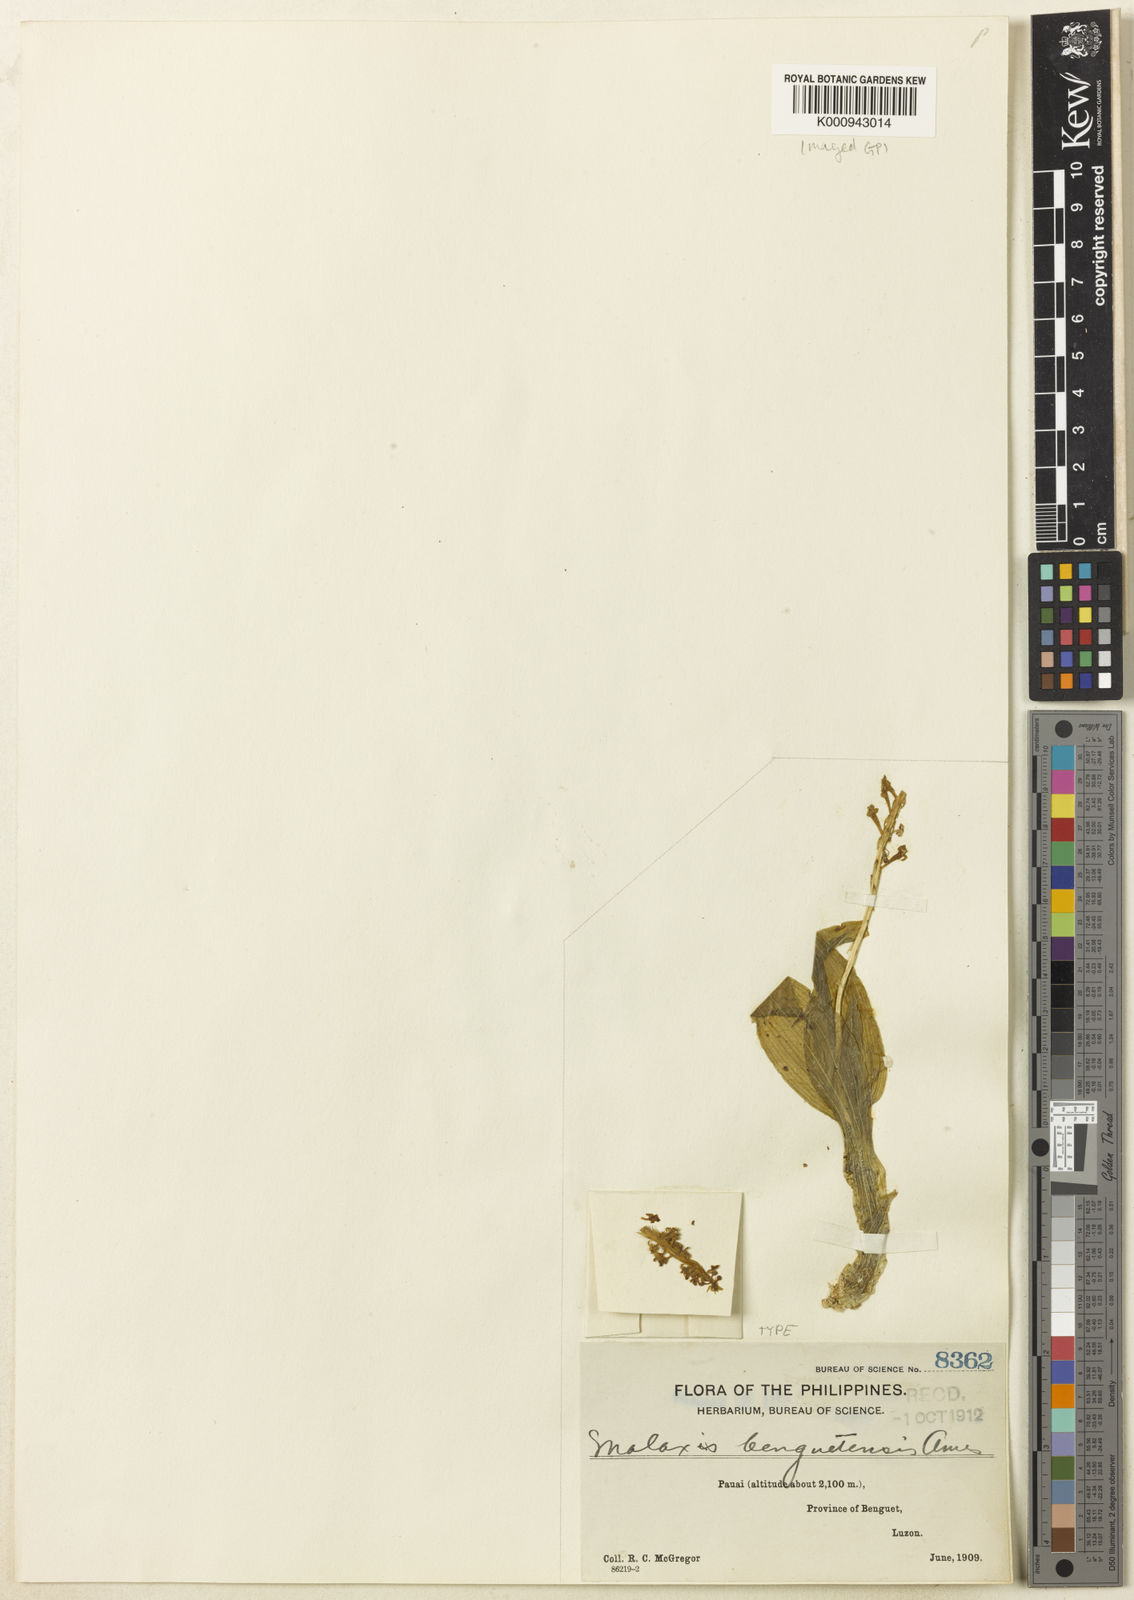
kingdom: Plantae
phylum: Tracheophyta
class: Liliopsida
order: Asparagales
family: Orchidaceae
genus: Dienia
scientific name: Dienia carinata
